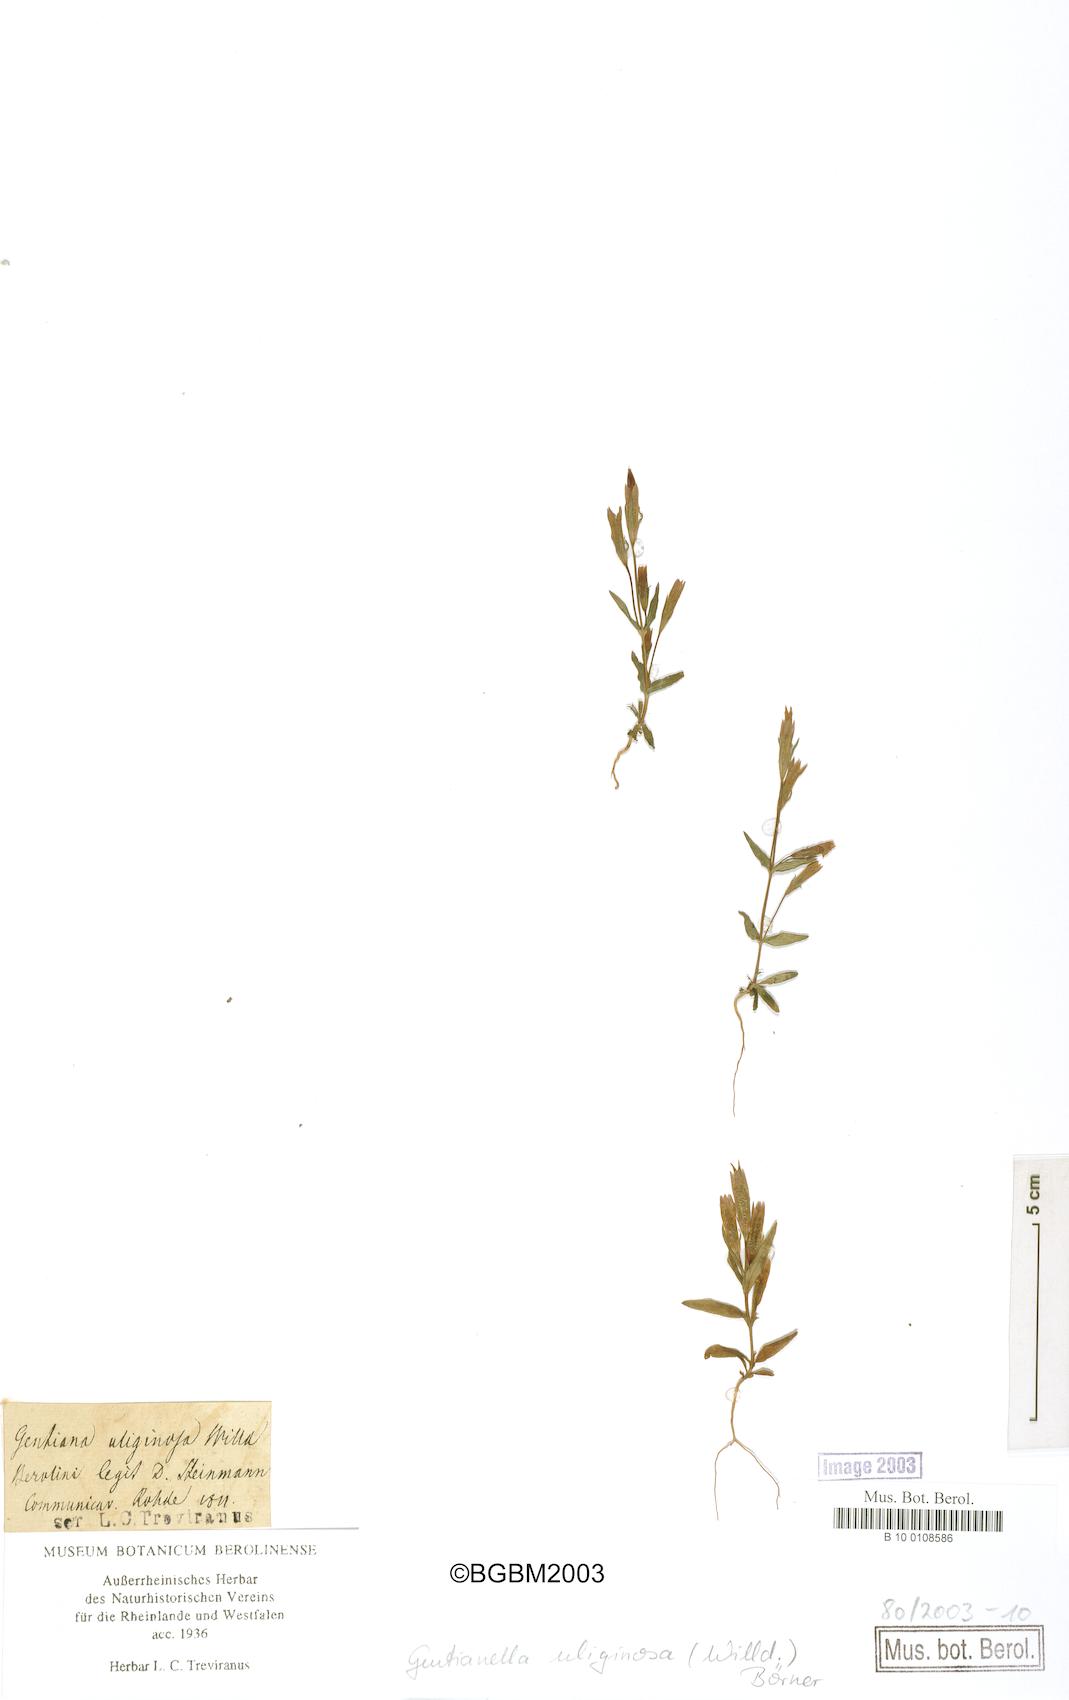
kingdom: Plantae
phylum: Tracheophyta
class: Magnoliopsida
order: Gentianales
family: Gentianaceae
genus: Gentianella
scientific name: Gentianella uliginosa
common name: Dune gentian
